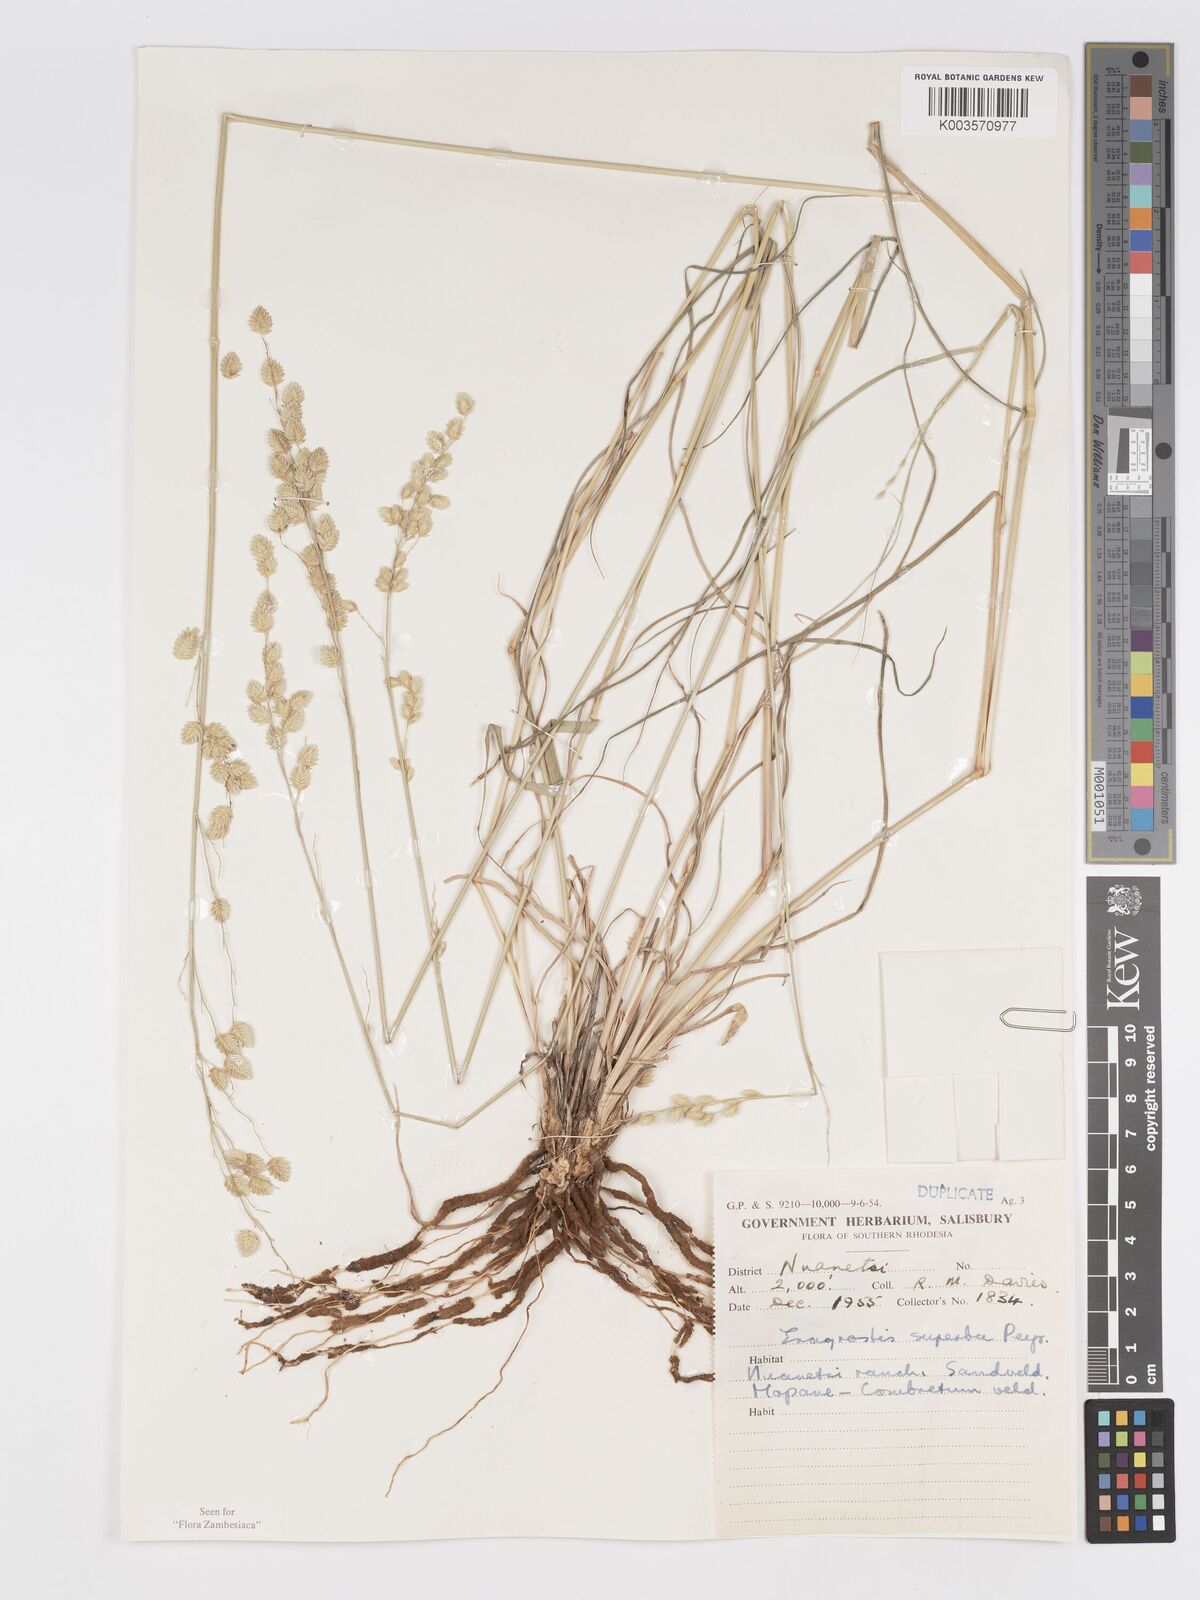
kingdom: Plantae
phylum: Tracheophyta
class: Liliopsida
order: Poales
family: Poaceae
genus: Eragrostis
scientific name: Eragrostis superba
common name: Wilman lovegrass
